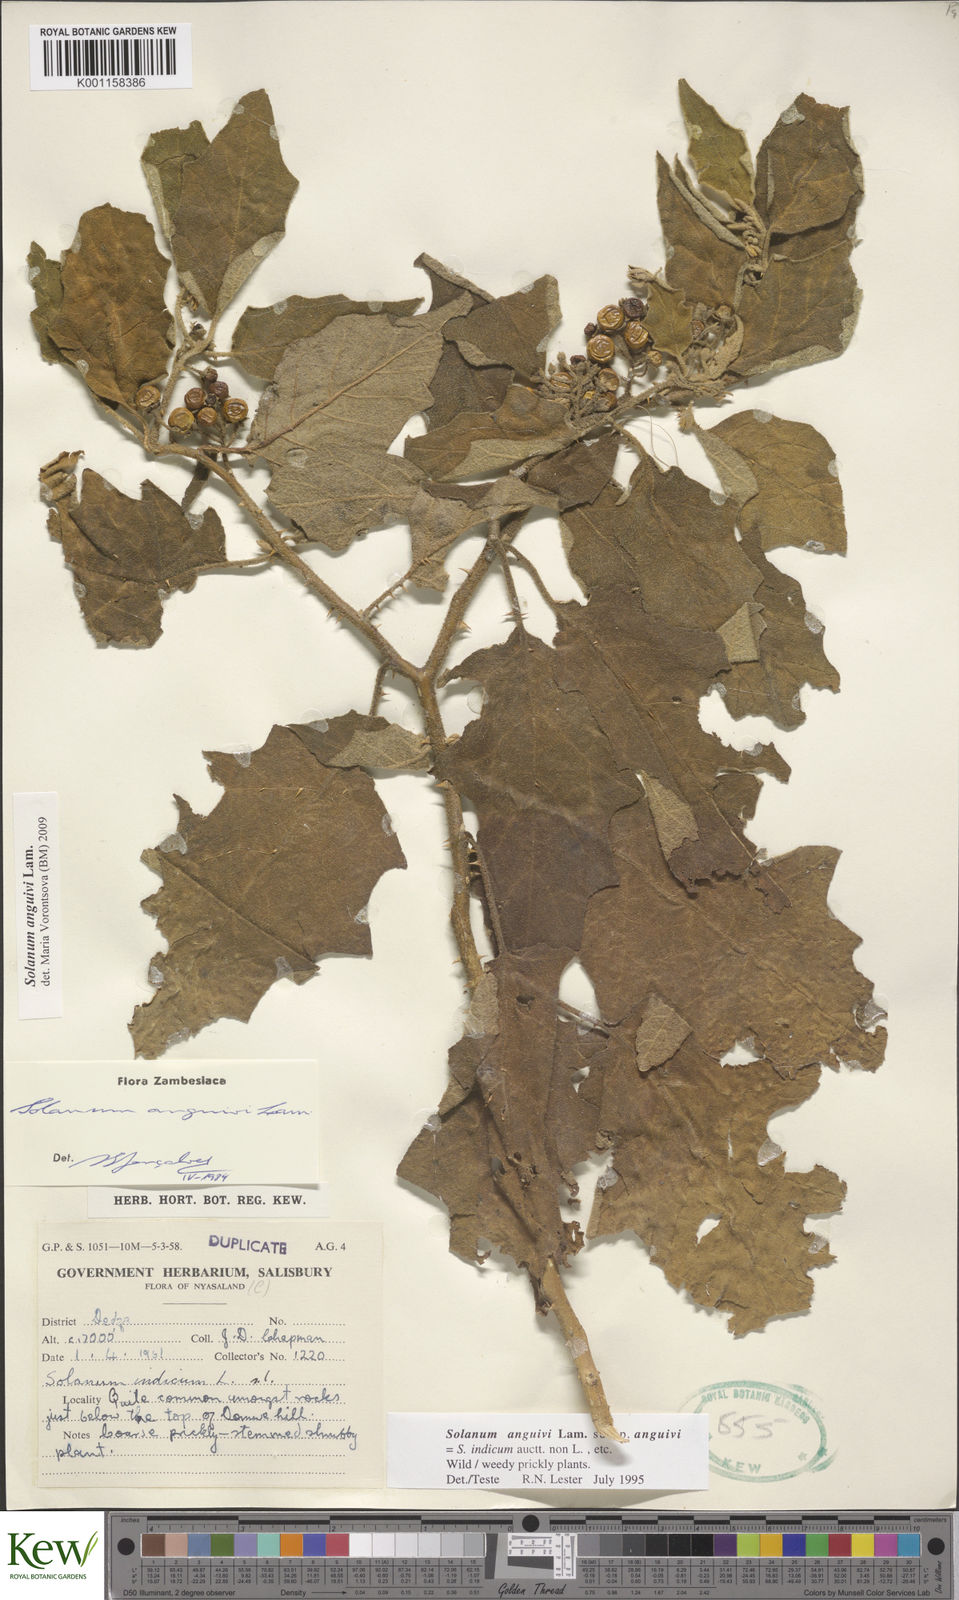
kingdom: Plantae
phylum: Tracheophyta
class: Magnoliopsida
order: Solanales
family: Solanaceae
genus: Solanum
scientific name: Solanum anguivi
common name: Forest bitterberry
